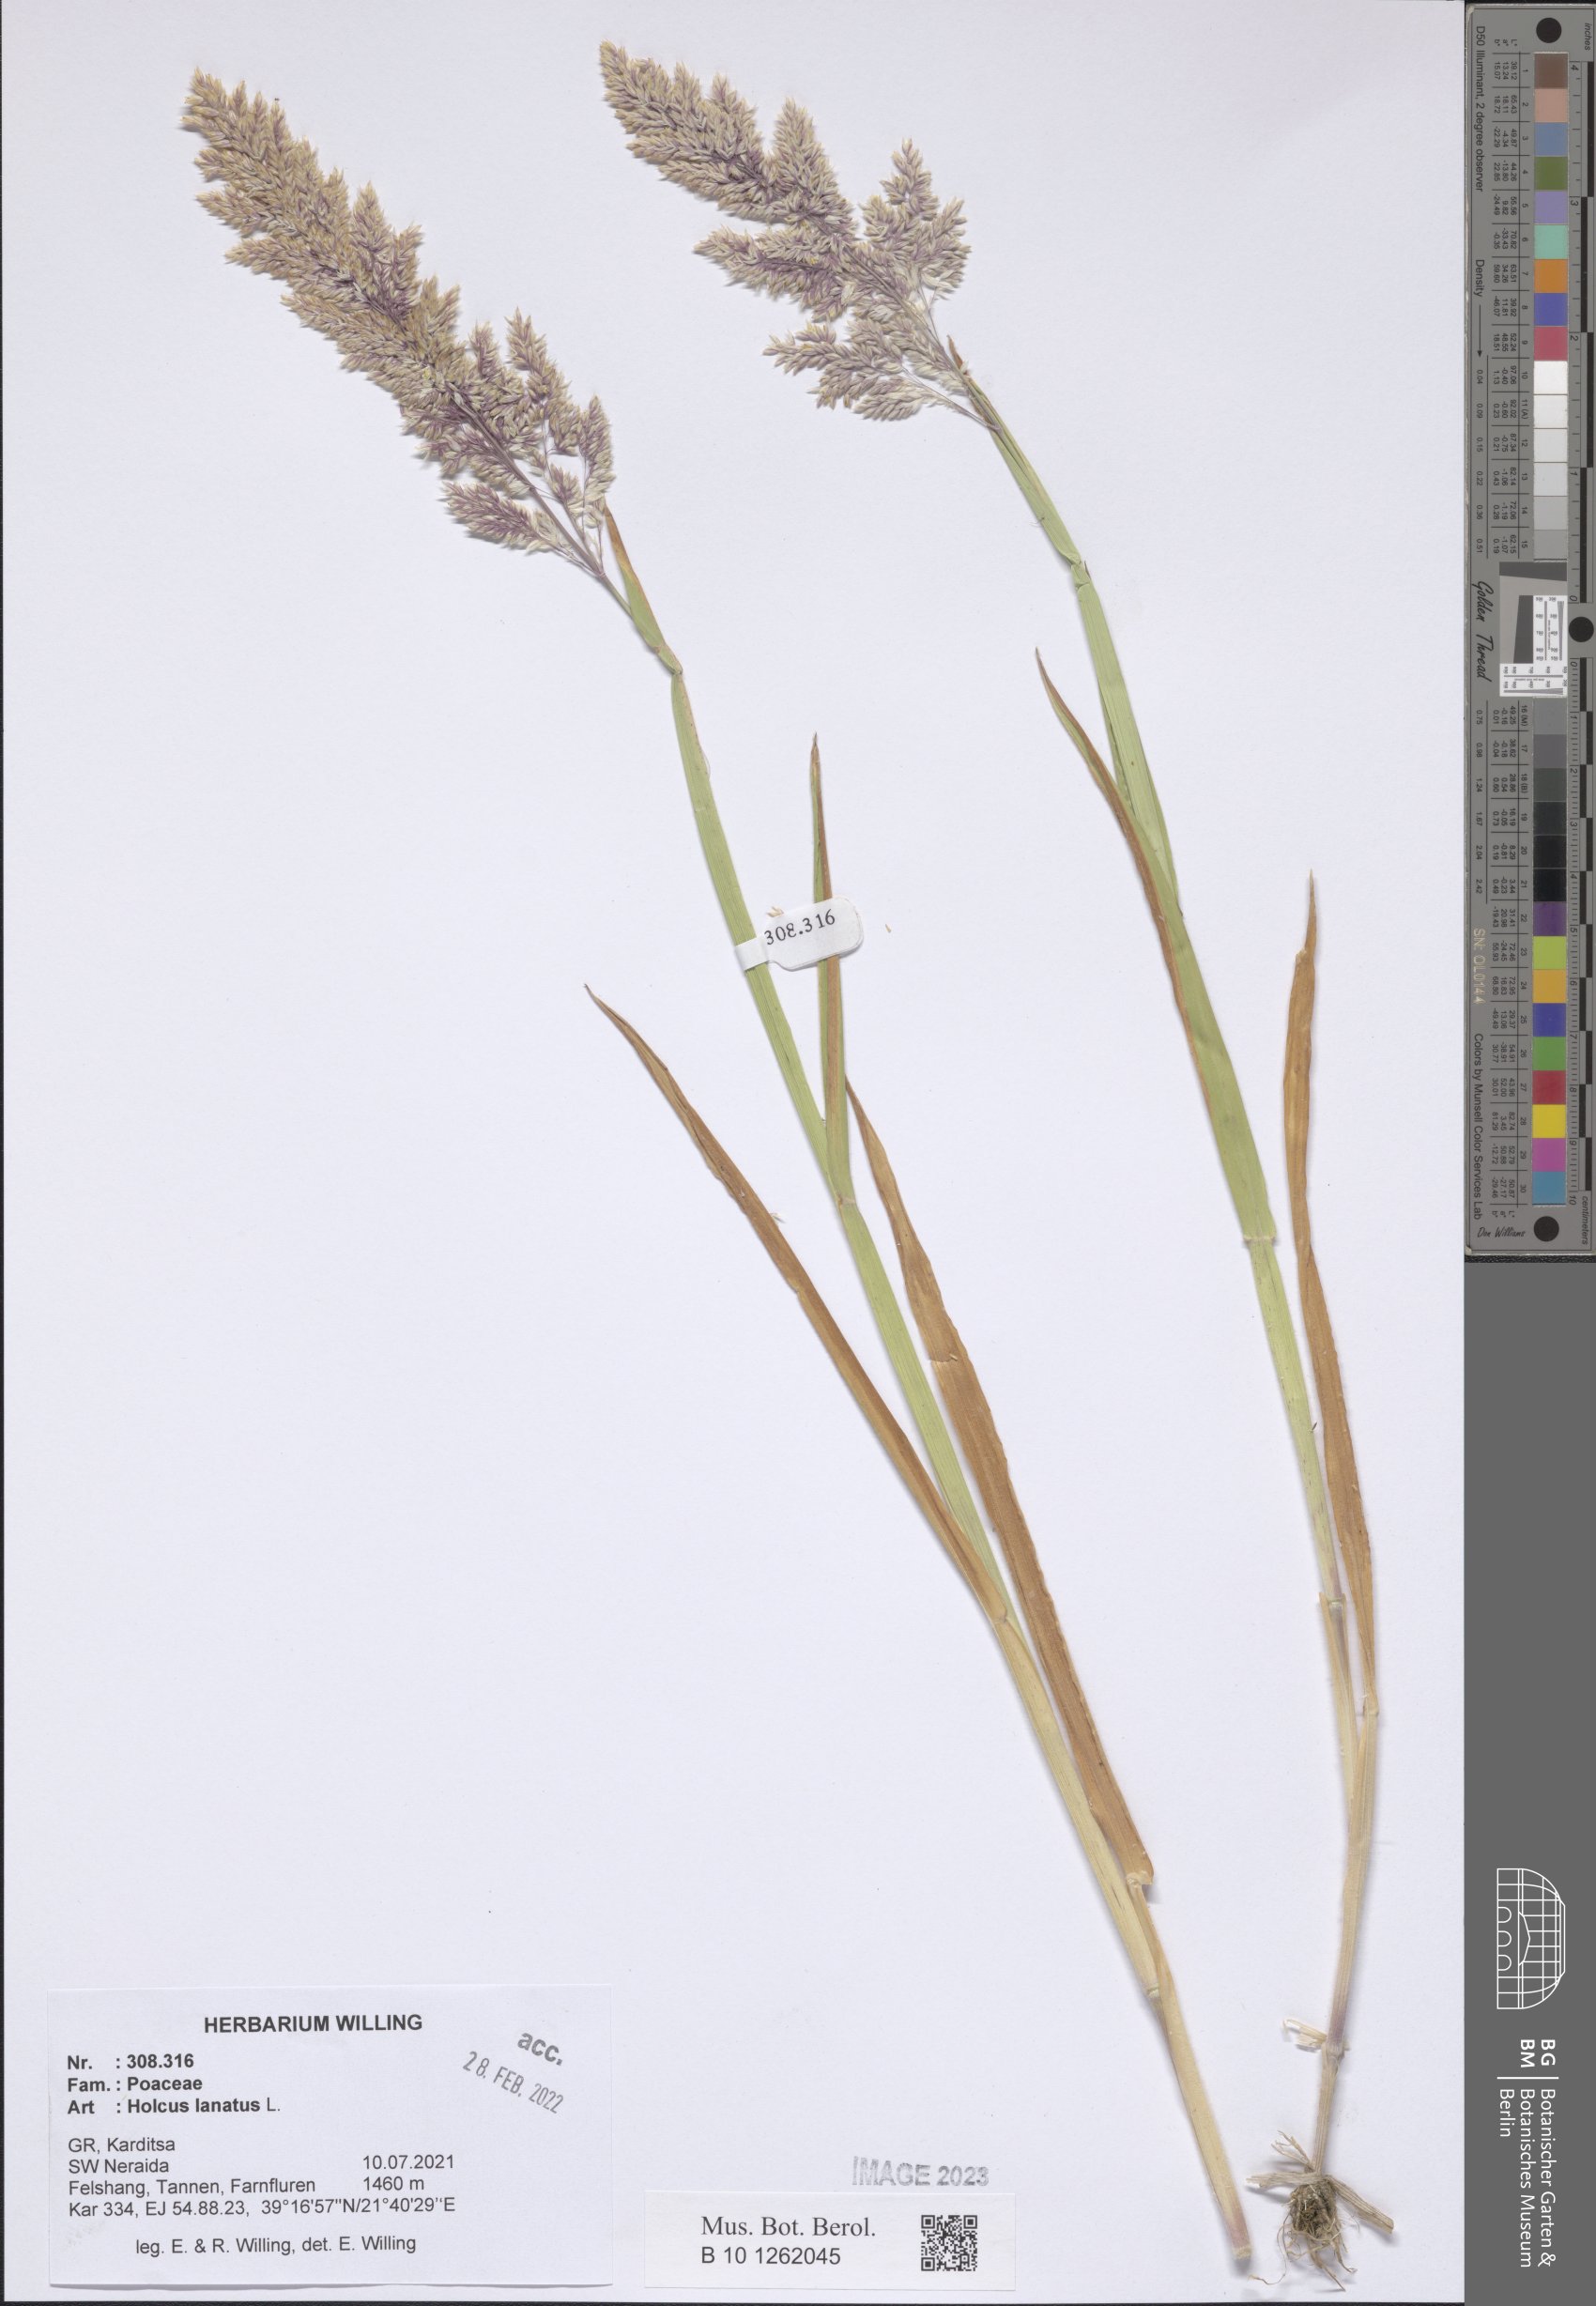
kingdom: Plantae
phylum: Tracheophyta
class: Liliopsida
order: Poales
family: Poaceae
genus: Holcus
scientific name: Holcus lanatus
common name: Yorkshire-fog
